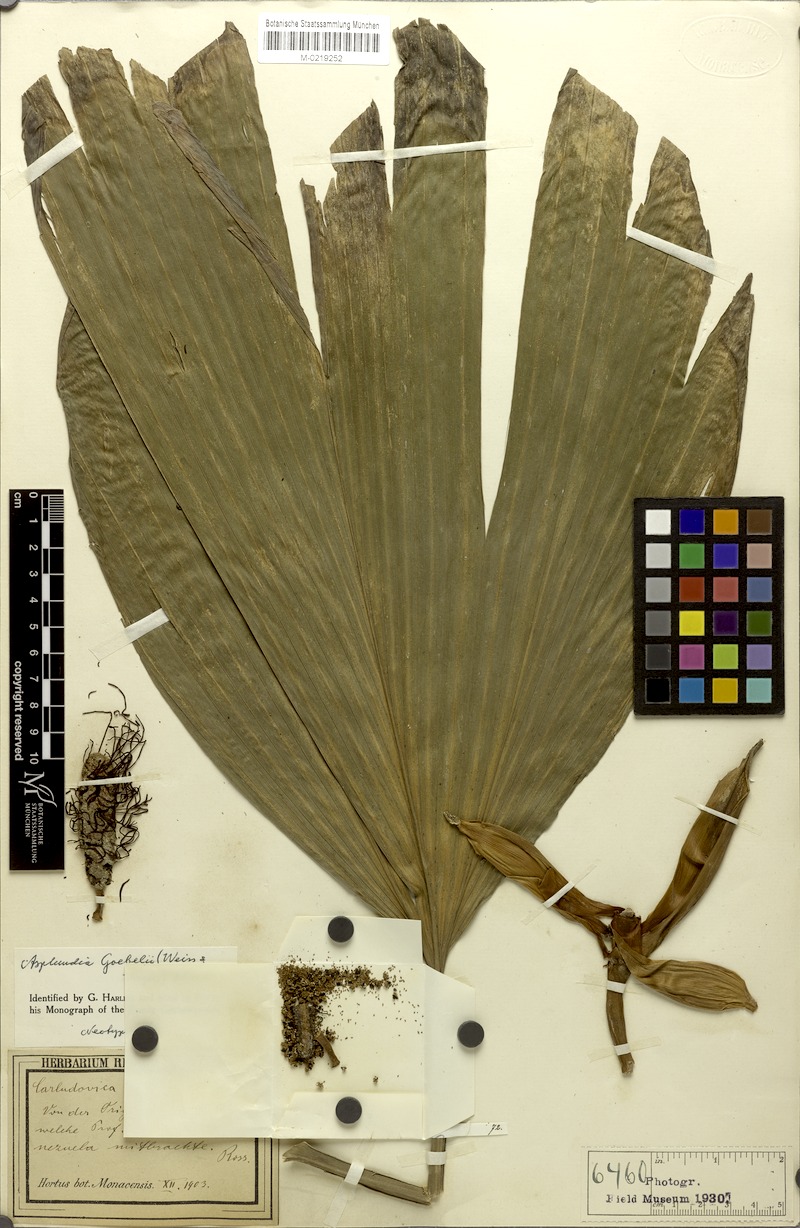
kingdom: Plantae
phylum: Tracheophyta
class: Liliopsida
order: Pandanales
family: Cyclanthaceae
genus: Asplundia
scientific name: Asplundia goebelii
